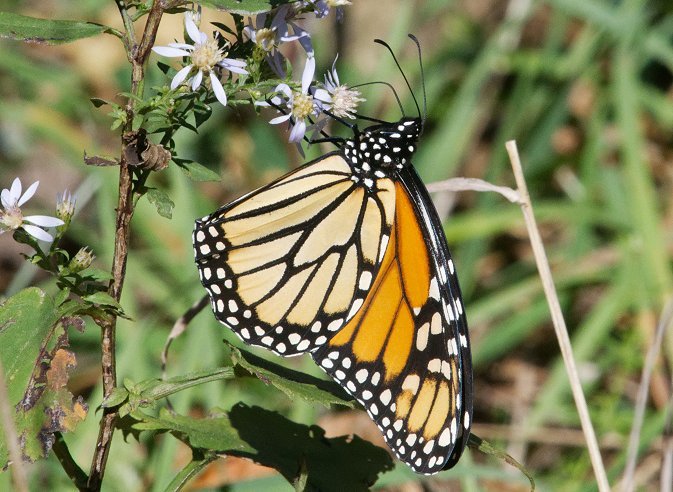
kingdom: Animalia
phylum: Arthropoda
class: Insecta
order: Lepidoptera
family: Nymphalidae
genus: Danaus
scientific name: Danaus plexippus
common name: Monarch
